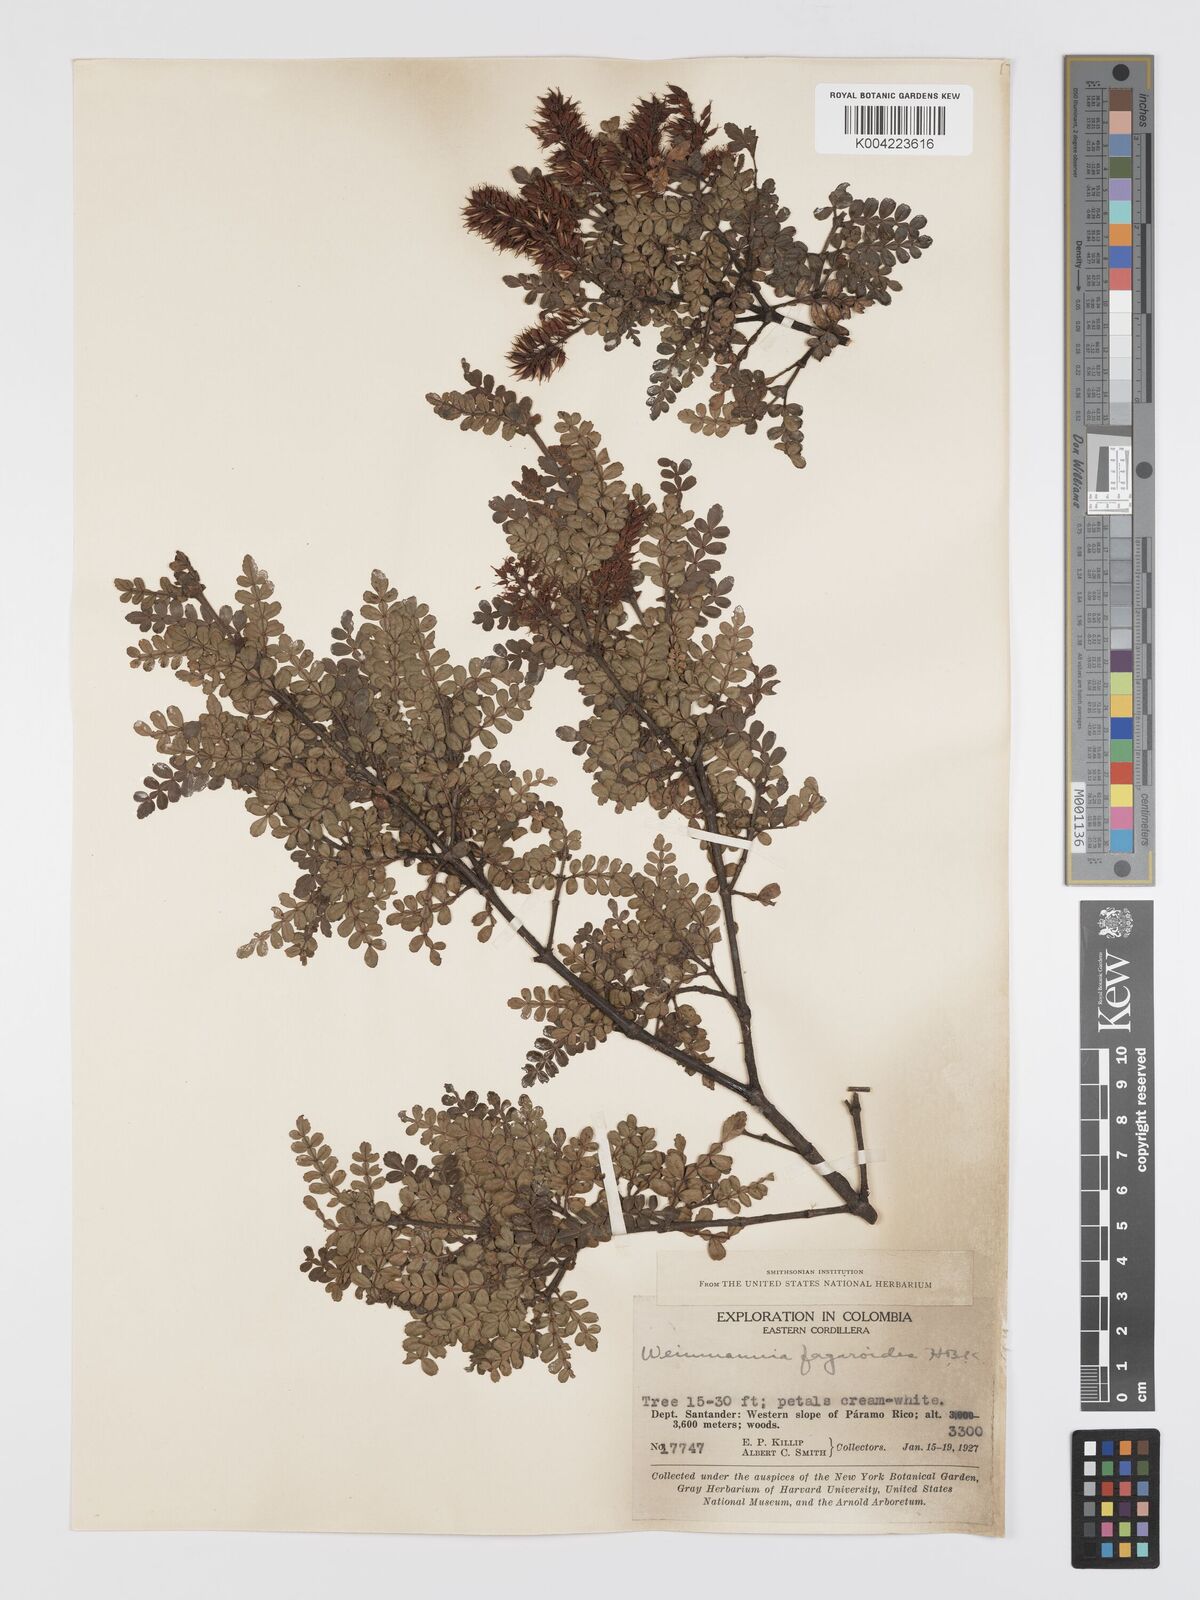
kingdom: Plantae
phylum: Tracheophyta
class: Magnoliopsida
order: Oxalidales
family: Cunoniaceae
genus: Weinmannia
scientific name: Weinmannia fagaroides
